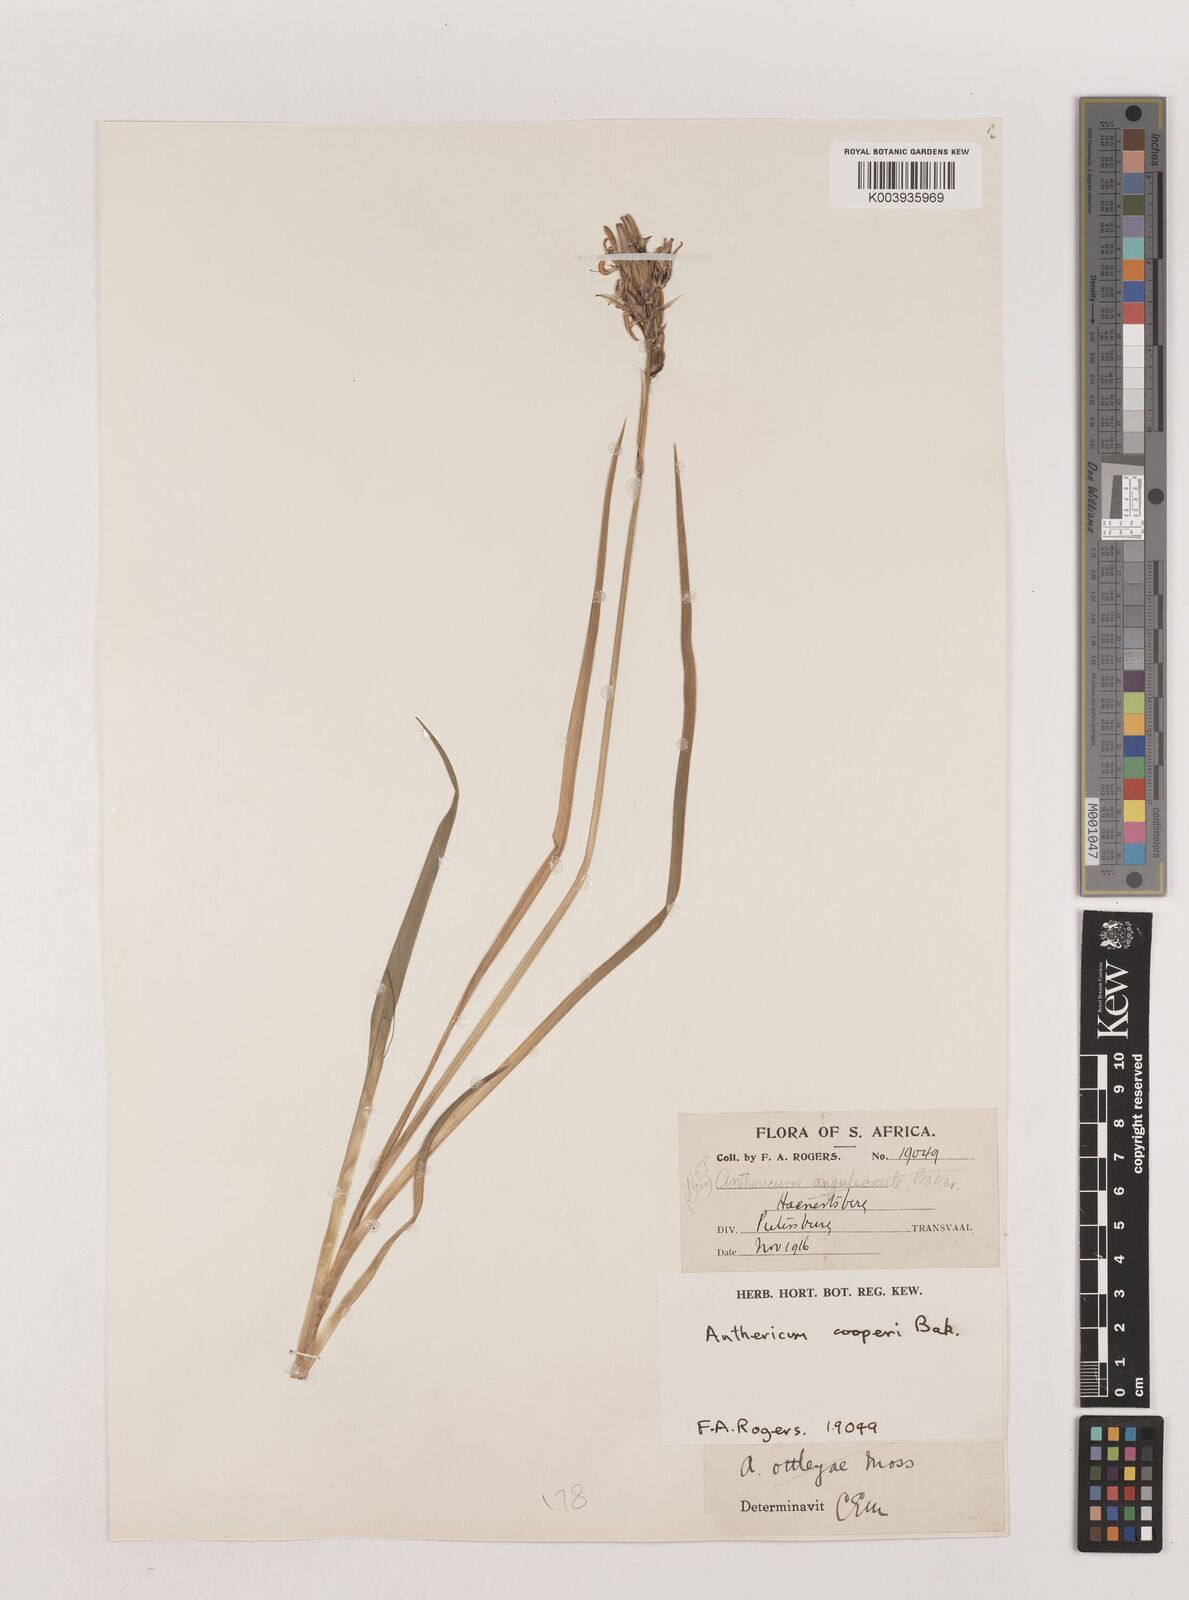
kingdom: Plantae
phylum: Tracheophyta
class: Liliopsida
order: Asparagales
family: Asparagaceae
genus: Chlorophytum
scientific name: Chlorophytum cooperi
